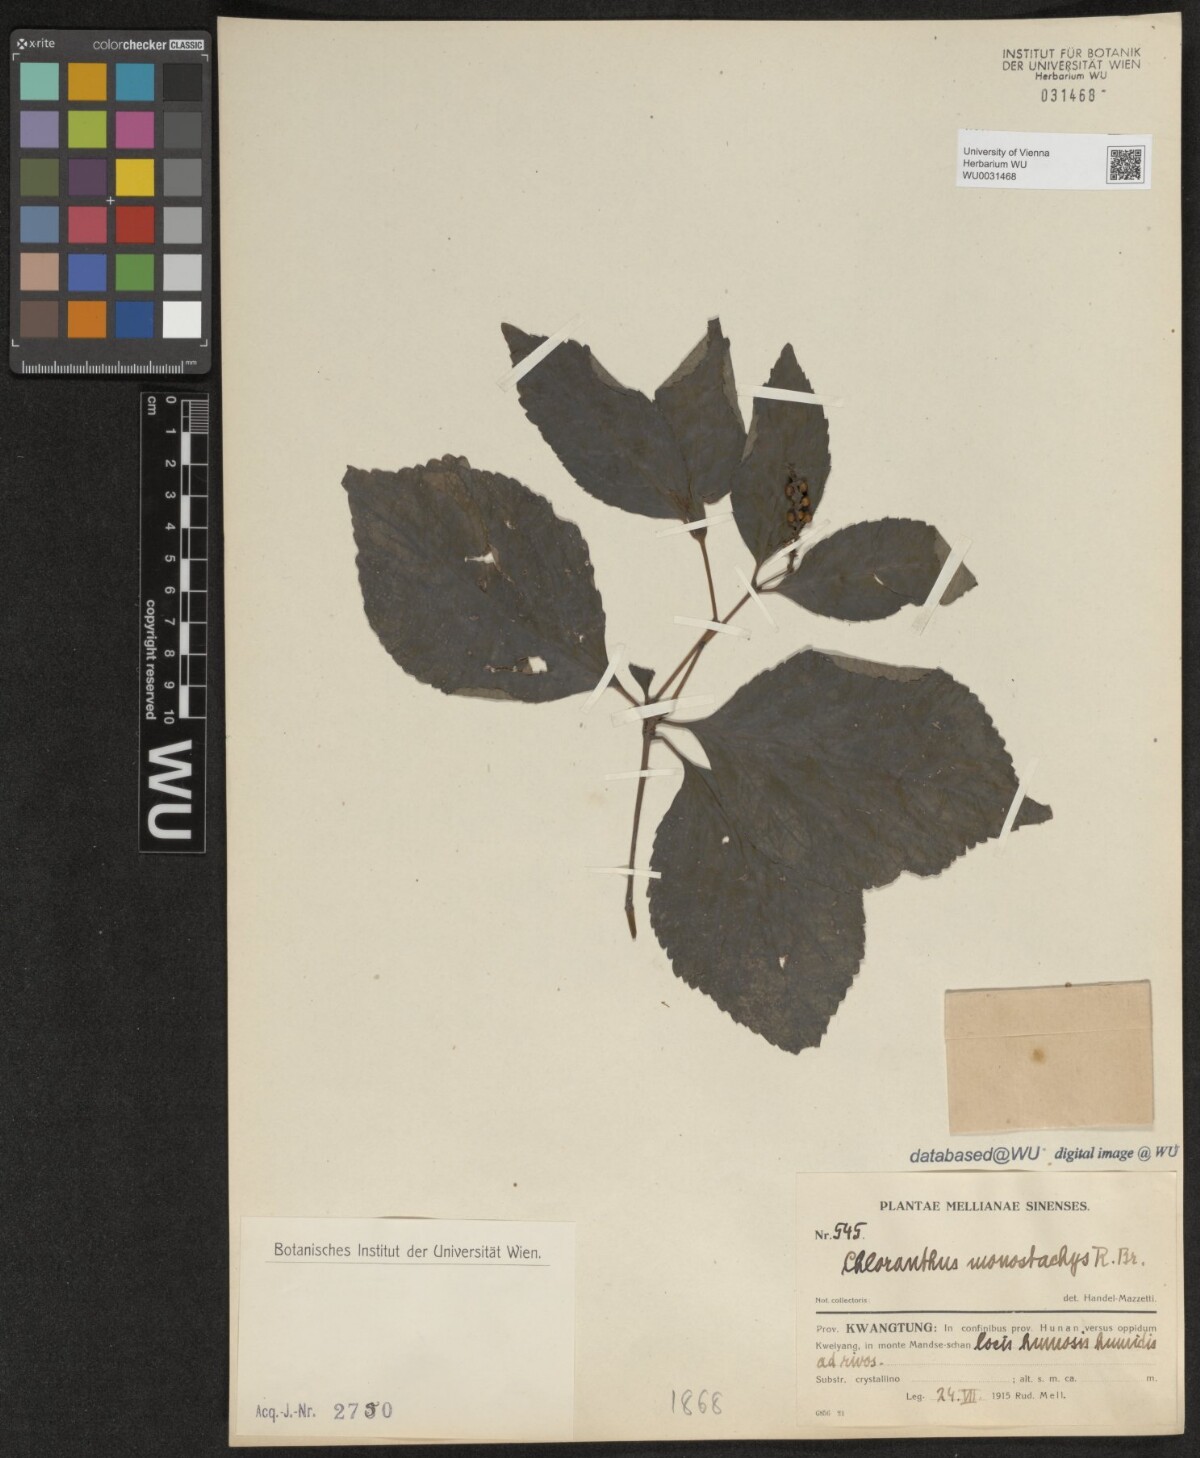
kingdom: Plantae
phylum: Tracheophyta
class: Magnoliopsida
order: Chloranthales
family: Chloranthaceae
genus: Chloranthus
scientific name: Chloranthus monostachys
